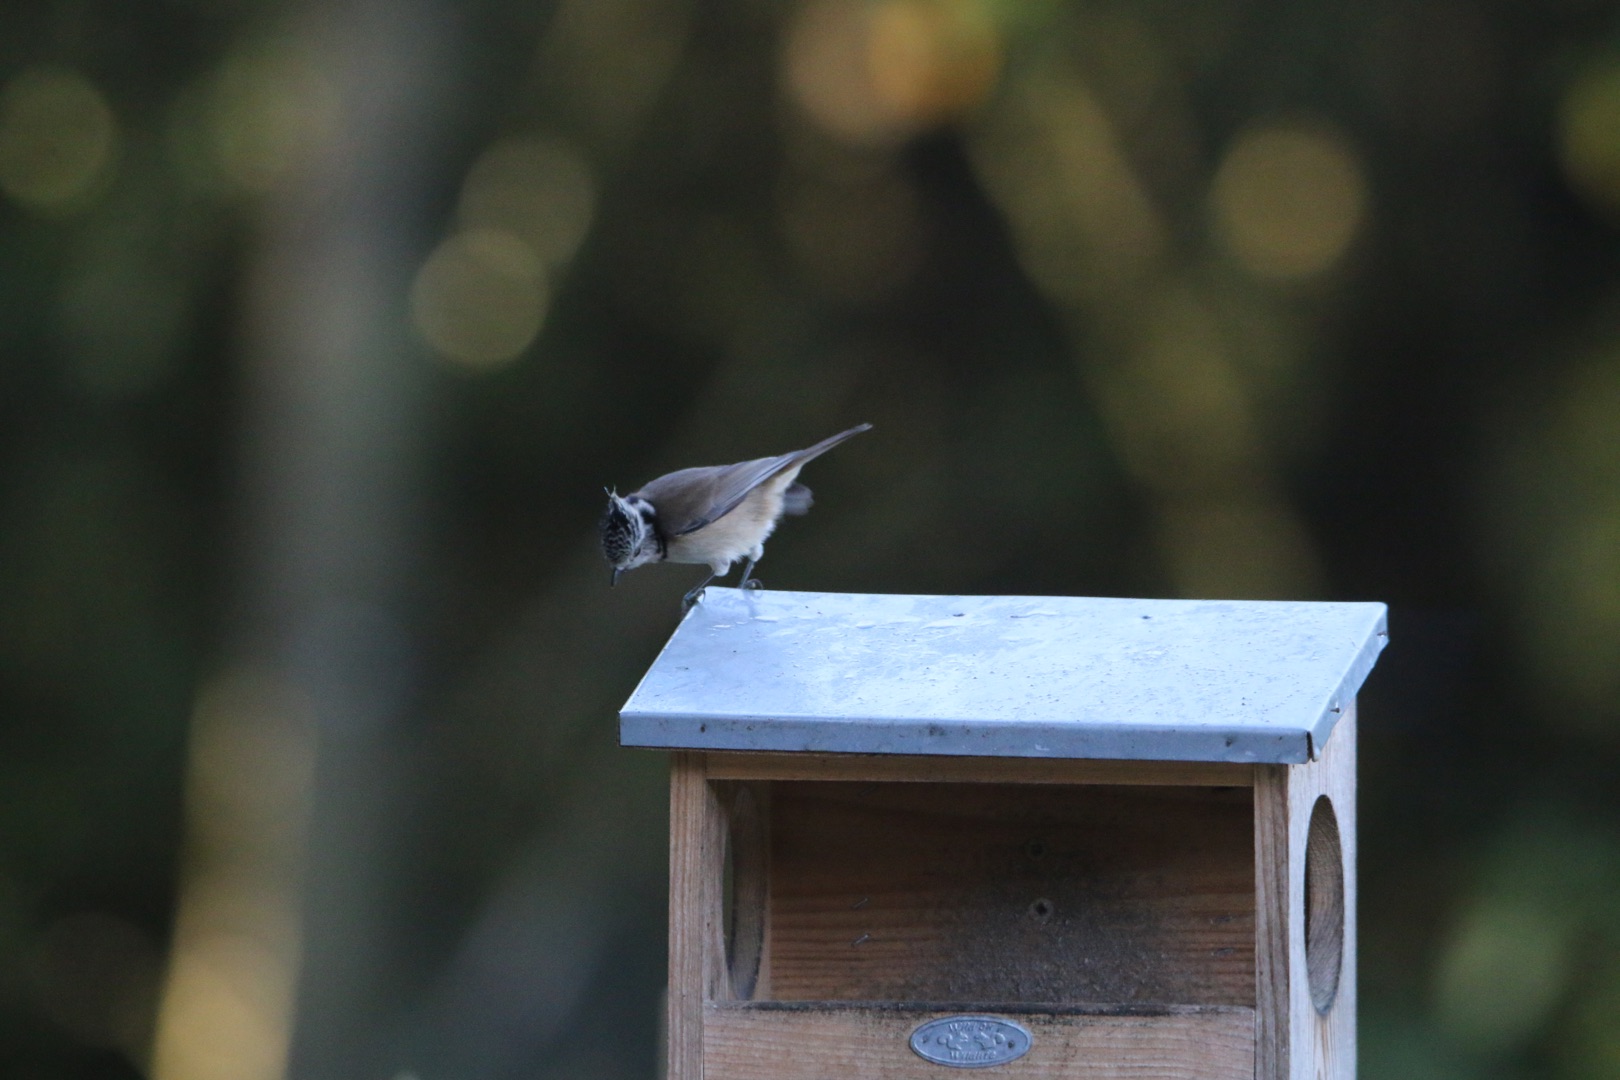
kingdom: Animalia
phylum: Chordata
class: Aves
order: Passeriformes
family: Paridae
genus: Lophophanes
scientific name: Lophophanes cristatus
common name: Topmejse
